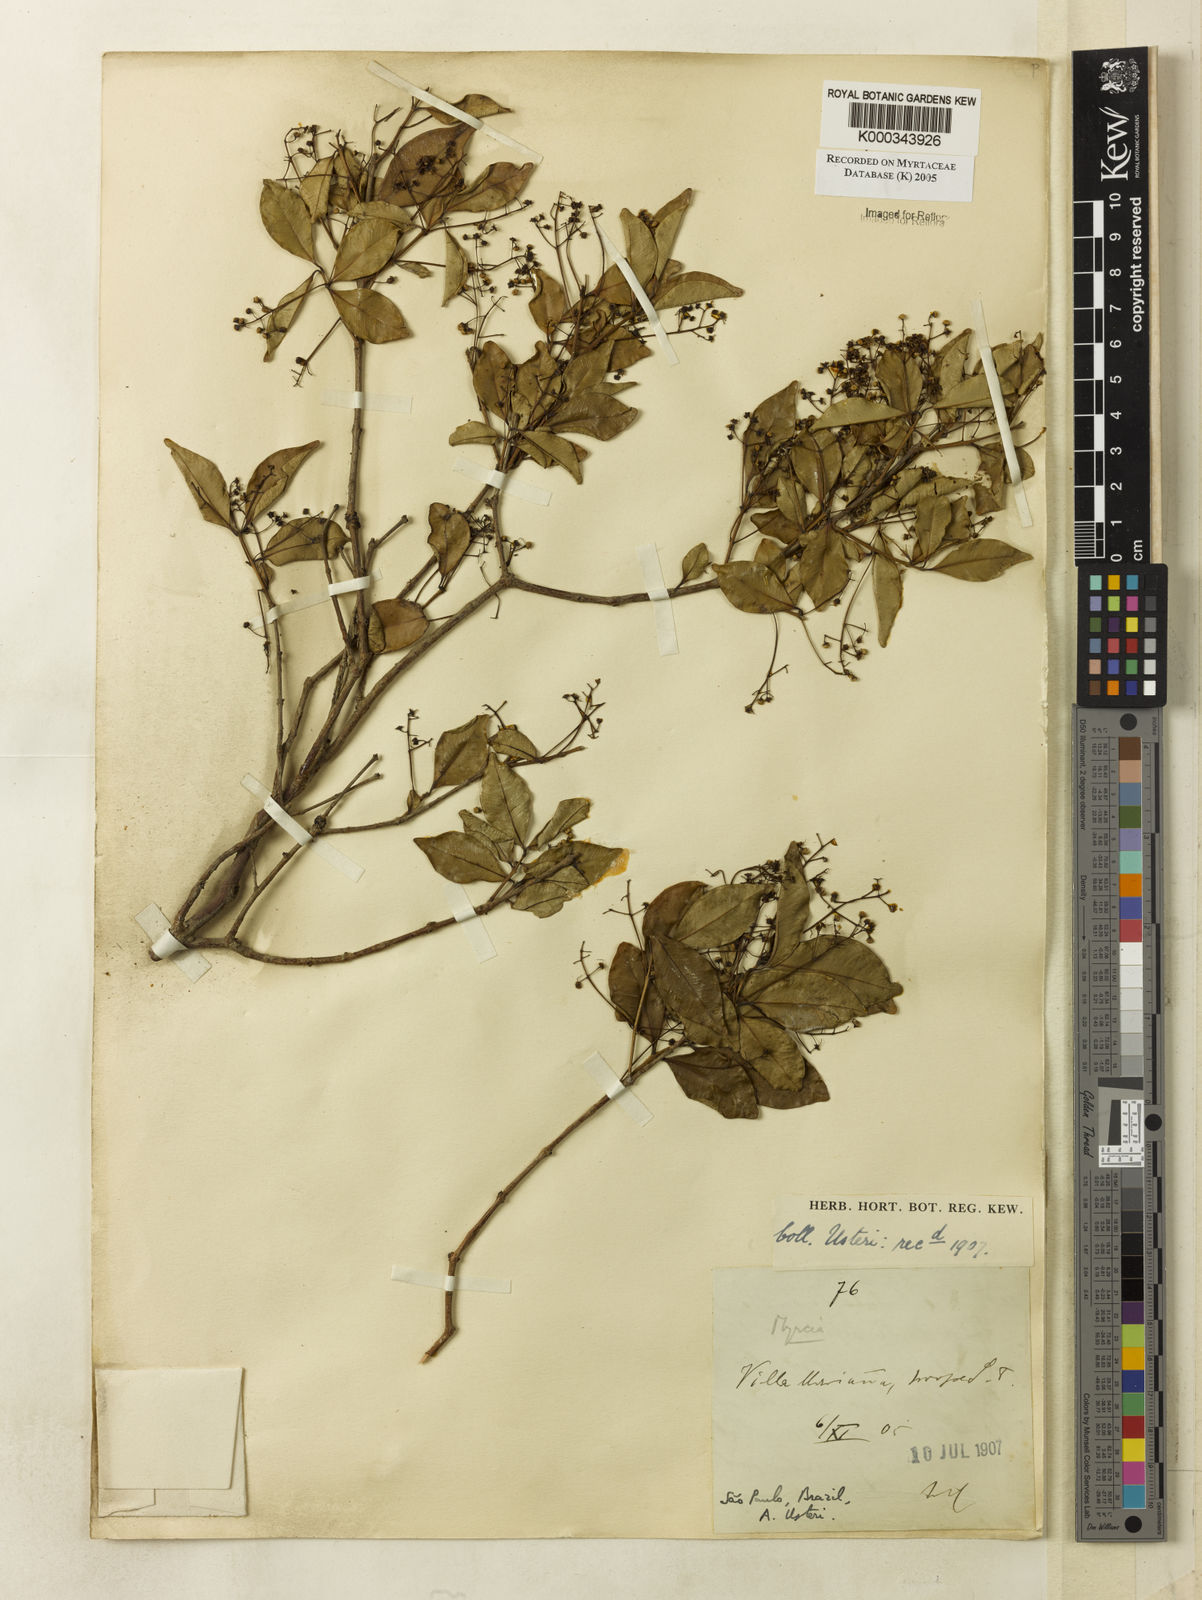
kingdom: Plantae
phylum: Tracheophyta
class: Magnoliopsida
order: Myrtales
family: Myrtaceae
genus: Myrcia
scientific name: Myrcia multiflora
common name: Pedra hume
